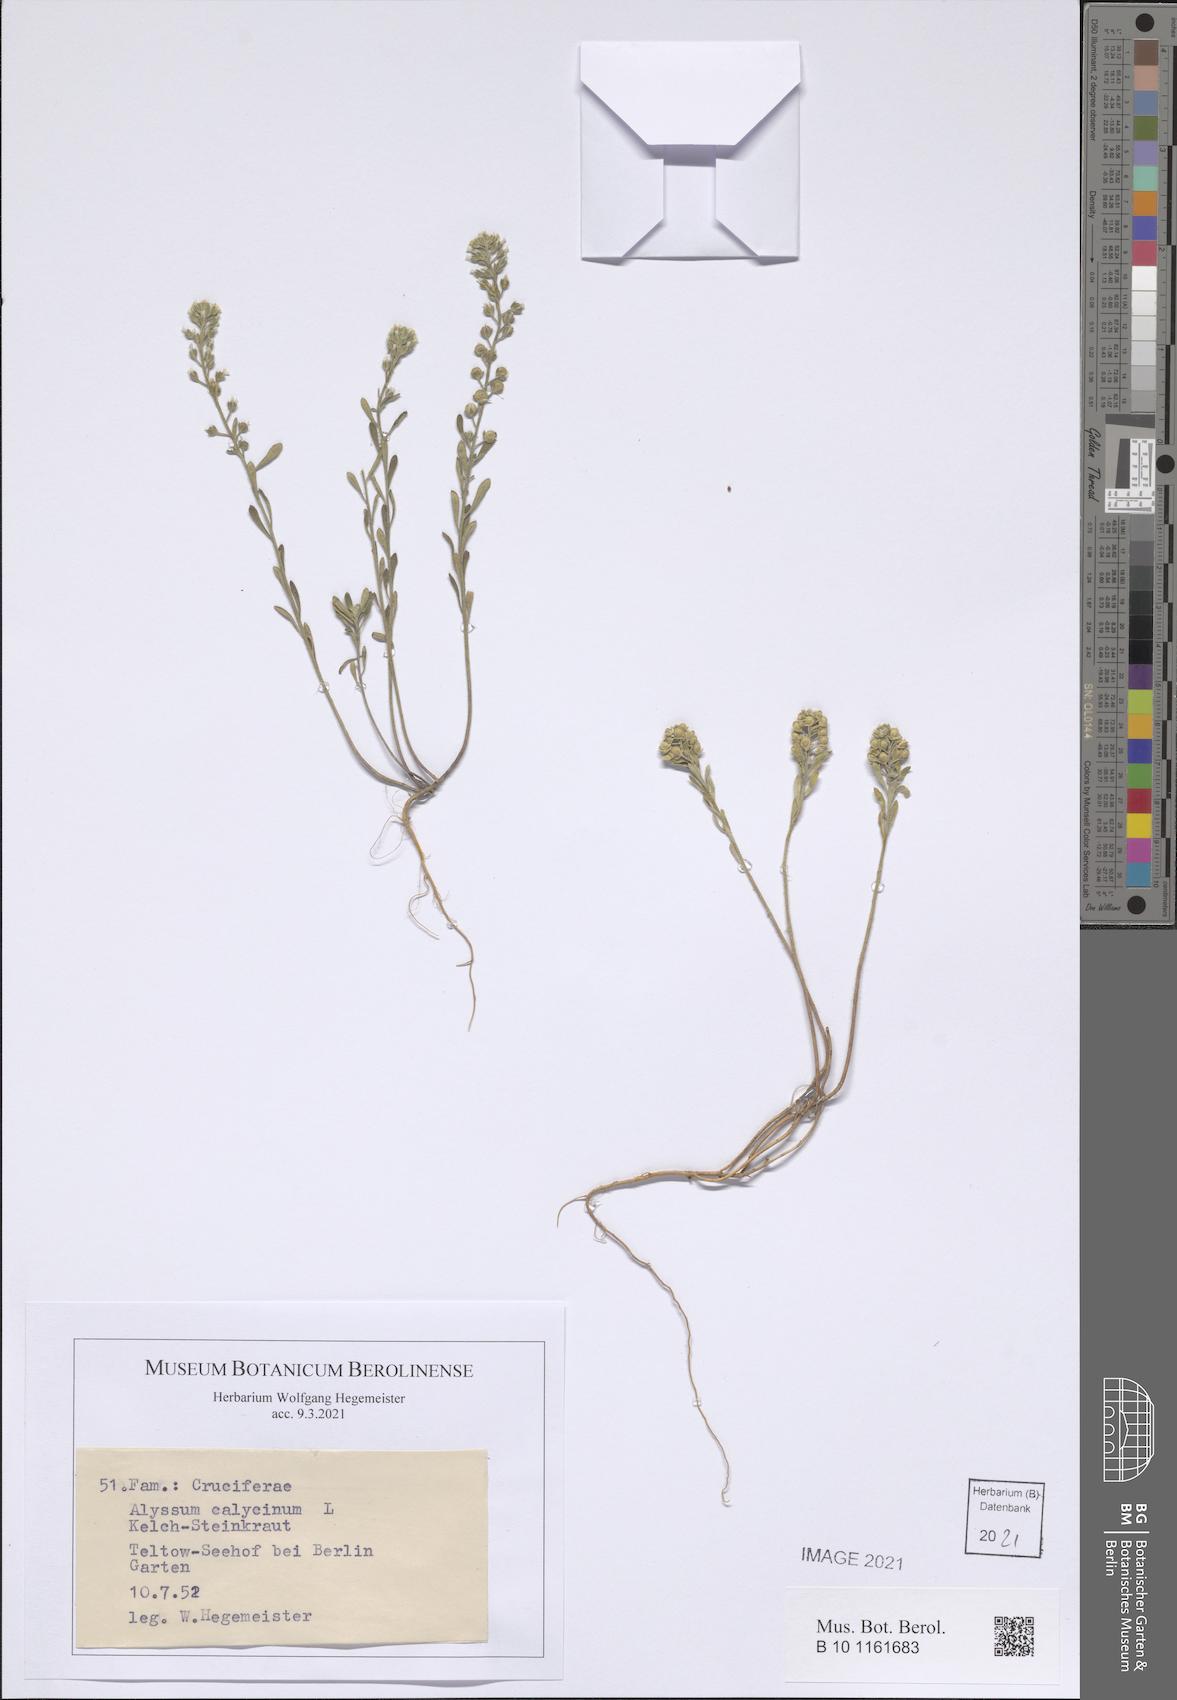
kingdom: Plantae
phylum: Tracheophyta
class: Magnoliopsida
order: Brassicales
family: Brassicaceae
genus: Alyssum
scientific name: Alyssum alyssoides
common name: Small alison
